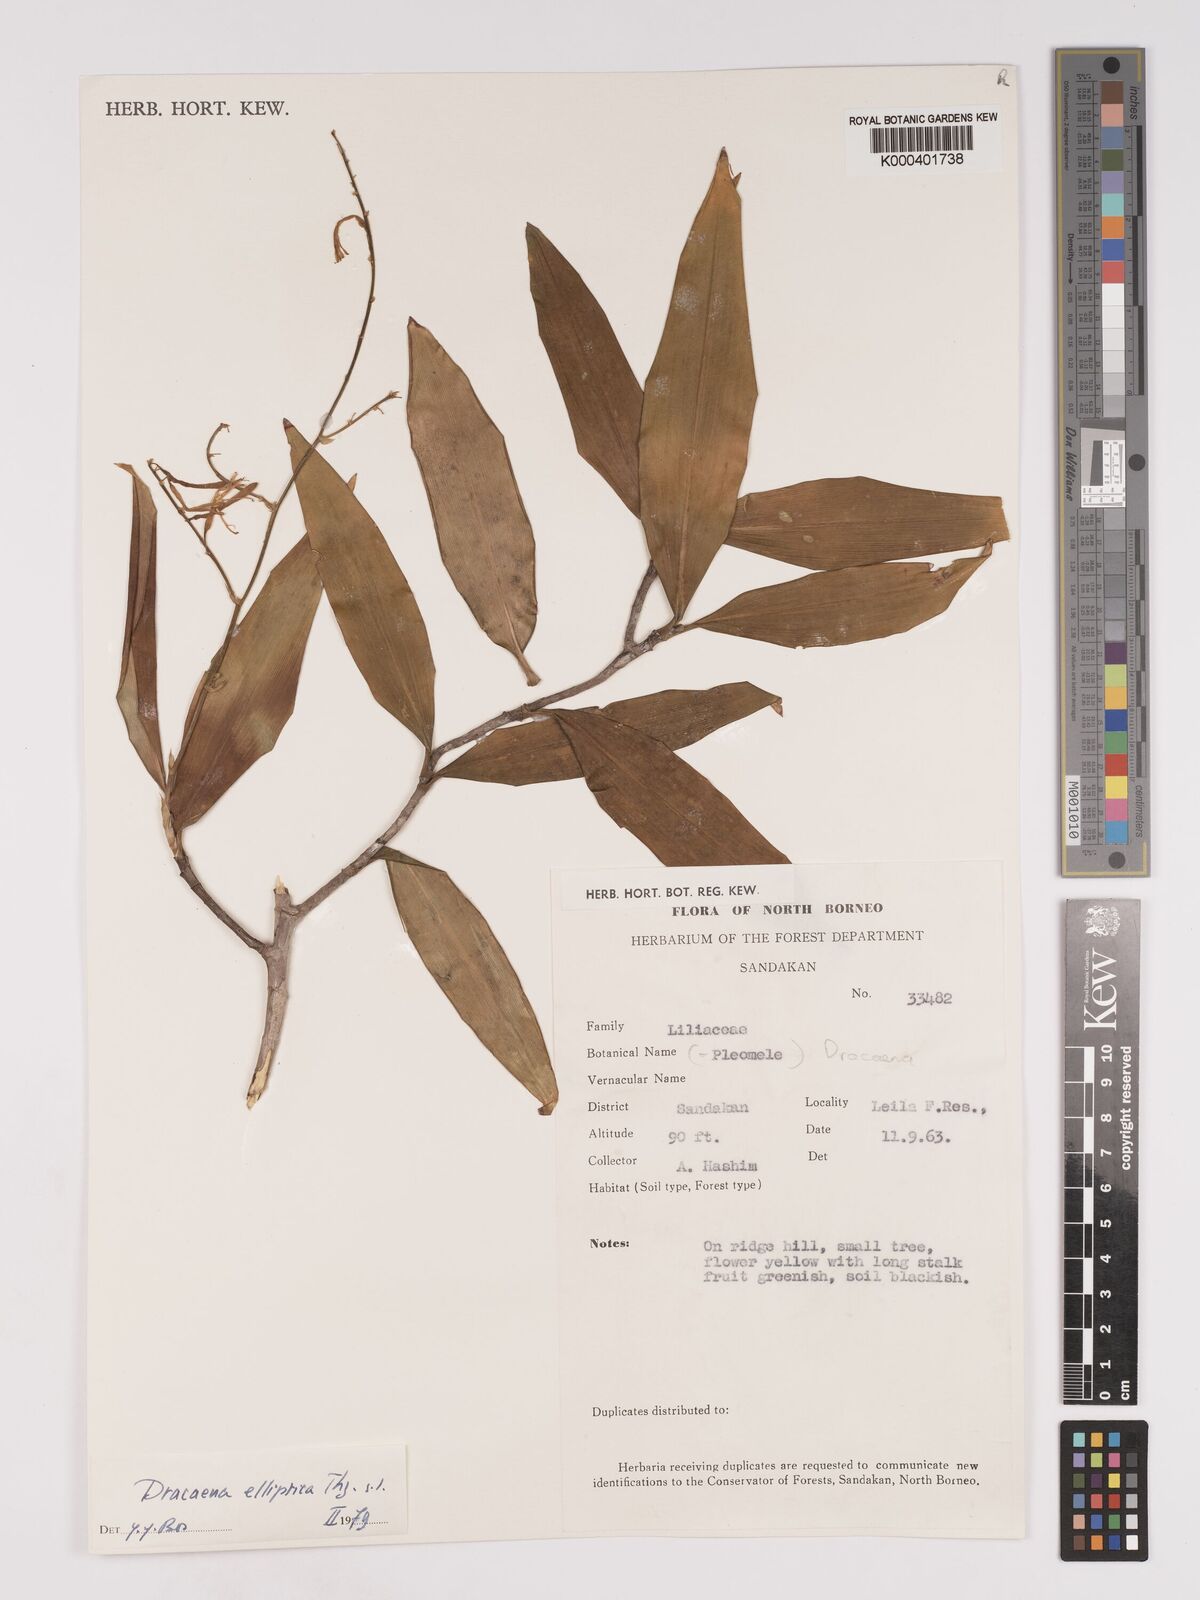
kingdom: Plantae
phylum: Tracheophyta
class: Liliopsida
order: Asparagales
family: Asparagaceae
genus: Dracaena
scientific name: Dracaena elliptica
